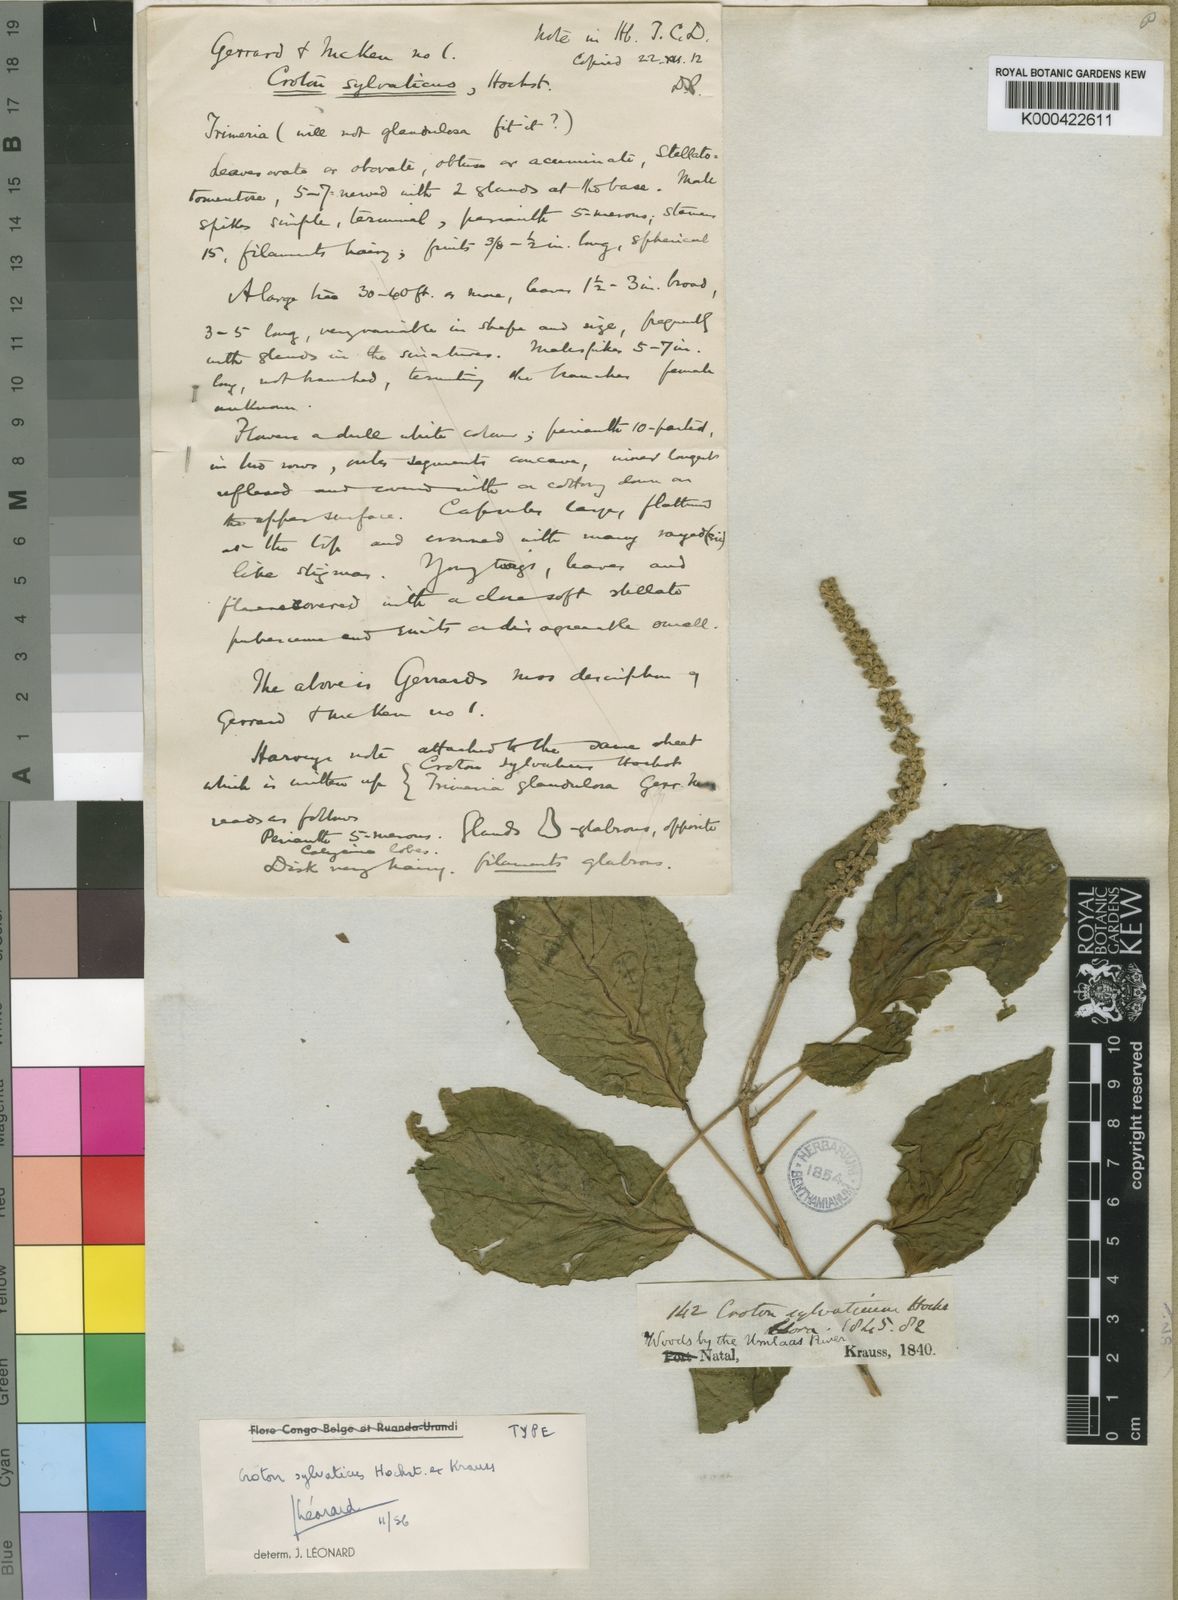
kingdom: Plantae
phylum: Tracheophyta
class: Magnoliopsida
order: Malpighiales
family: Euphorbiaceae
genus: Croton
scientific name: Croton sylvaticus
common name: Forest croton
